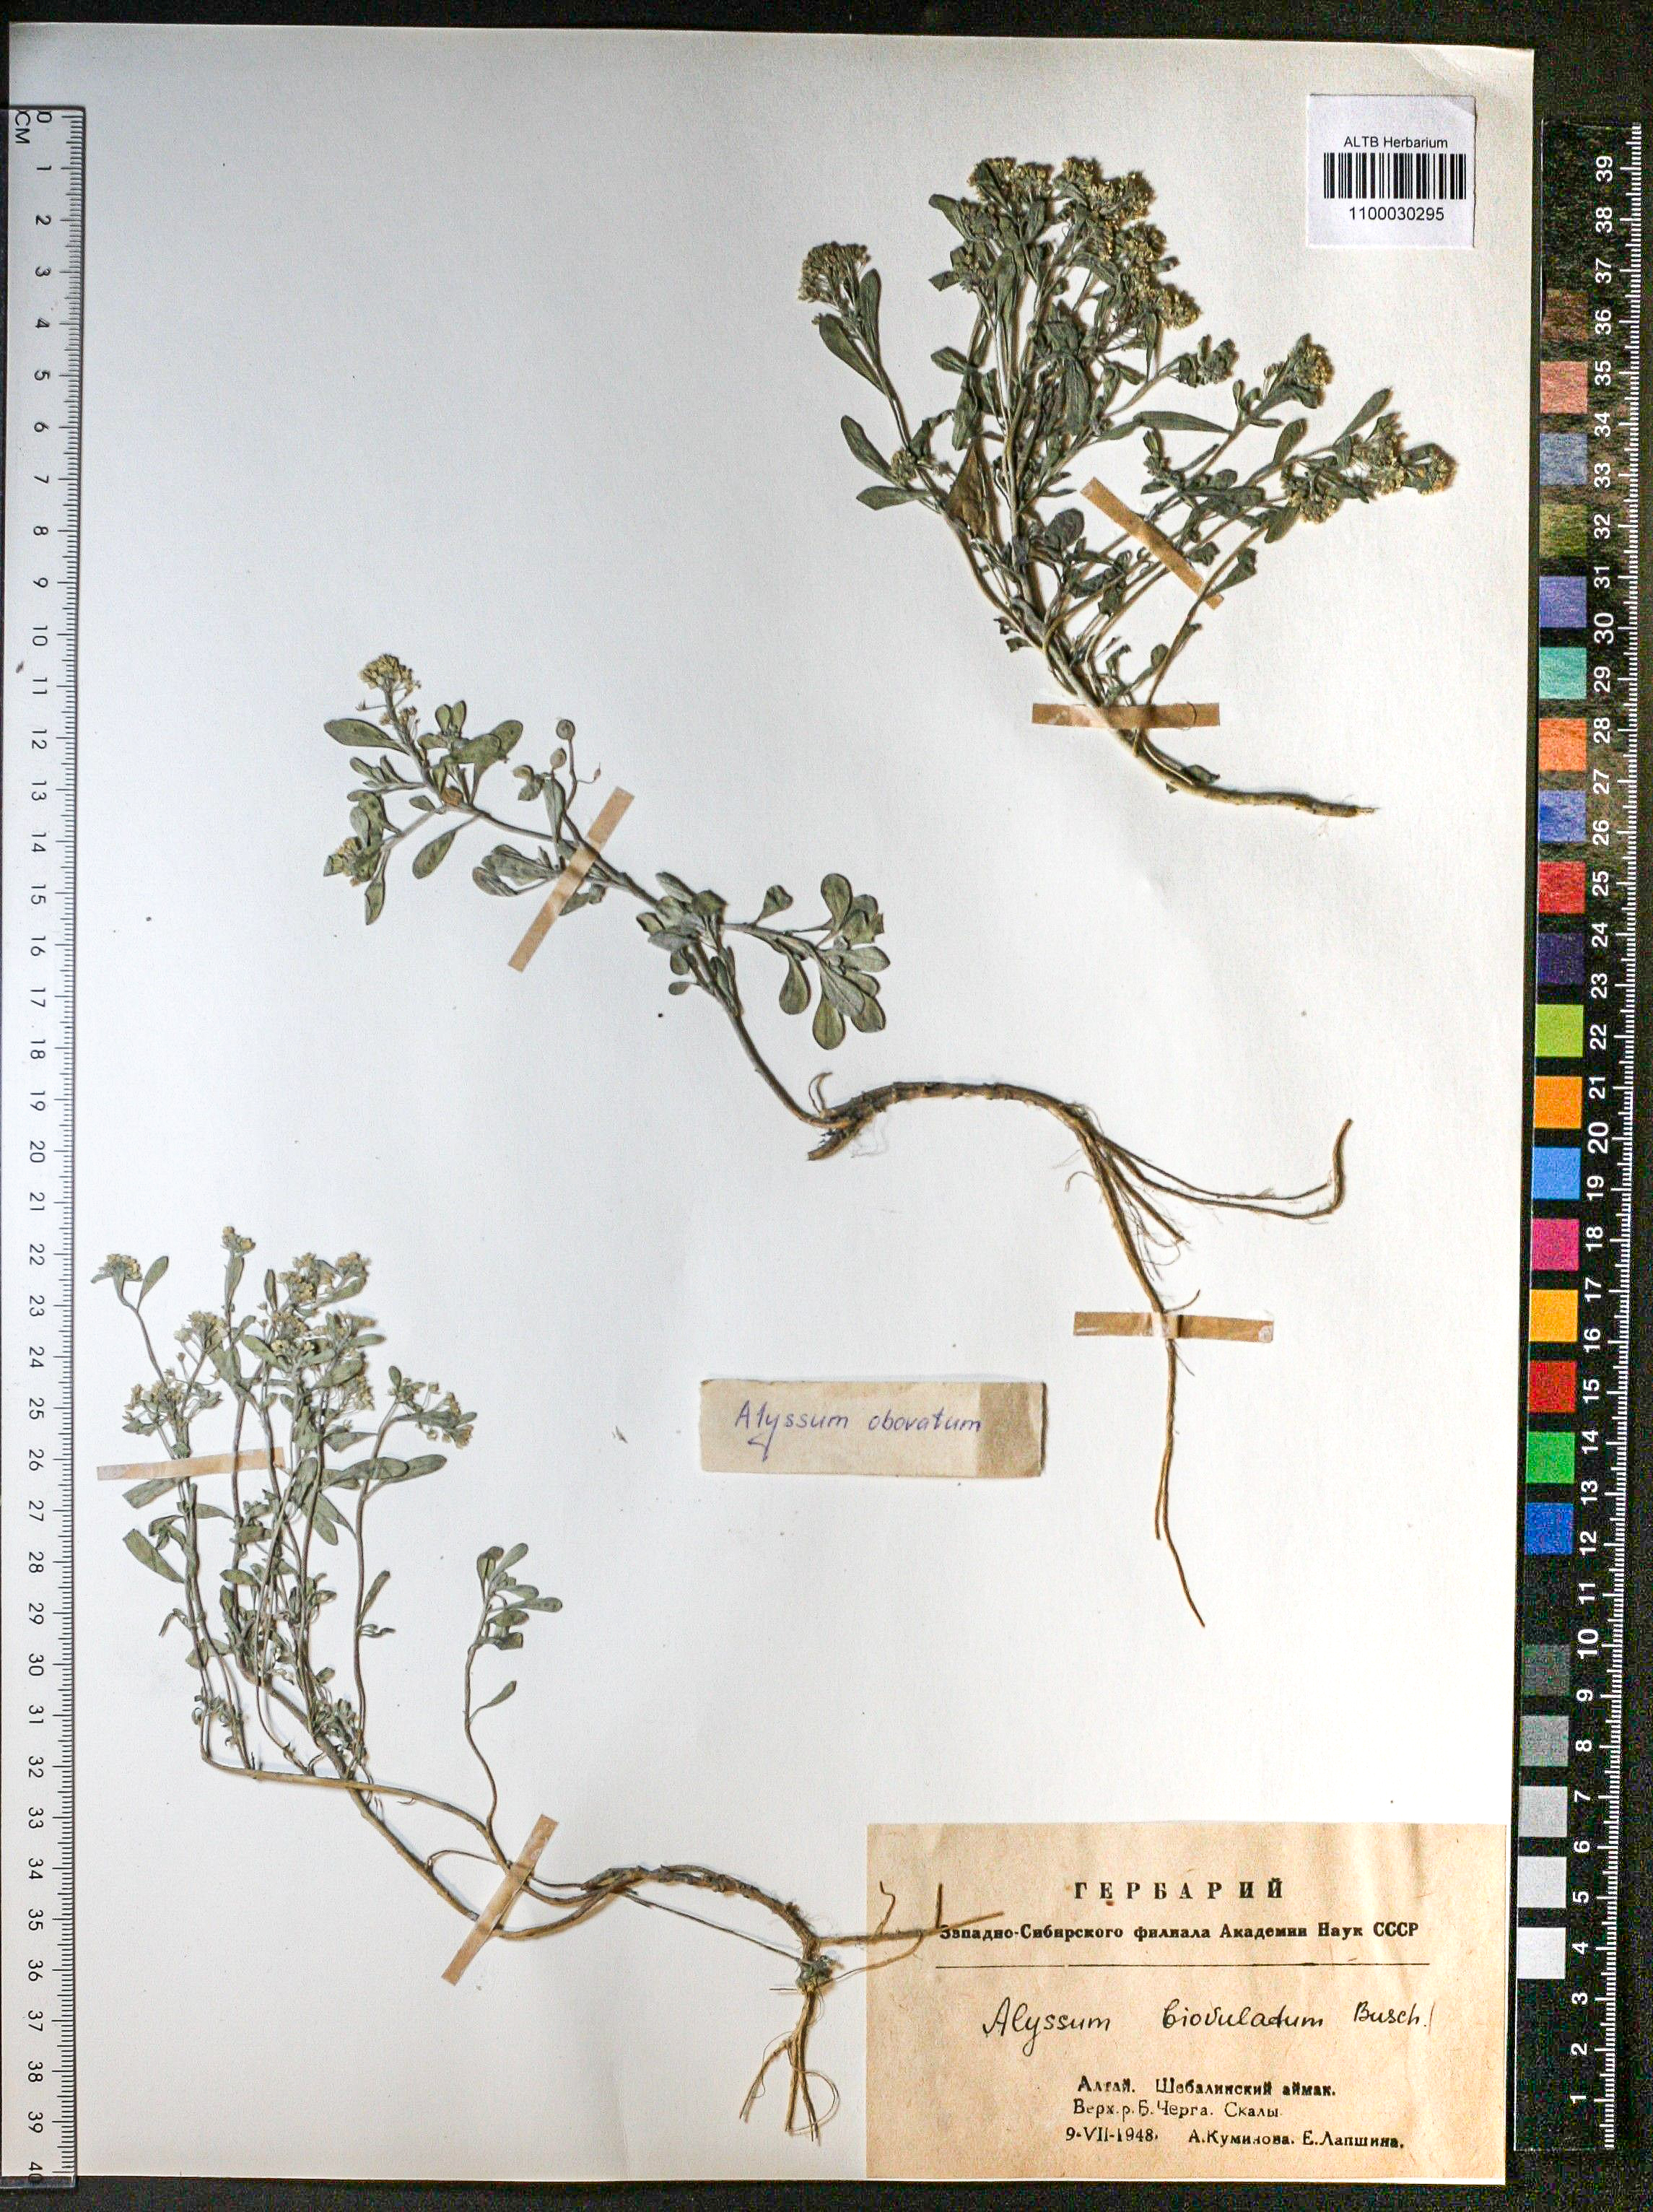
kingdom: Plantae
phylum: Tracheophyta
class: Magnoliopsida
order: Brassicales
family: Brassicaceae
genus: Odontarrhena
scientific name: Odontarrhena obovata
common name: American alyssum
